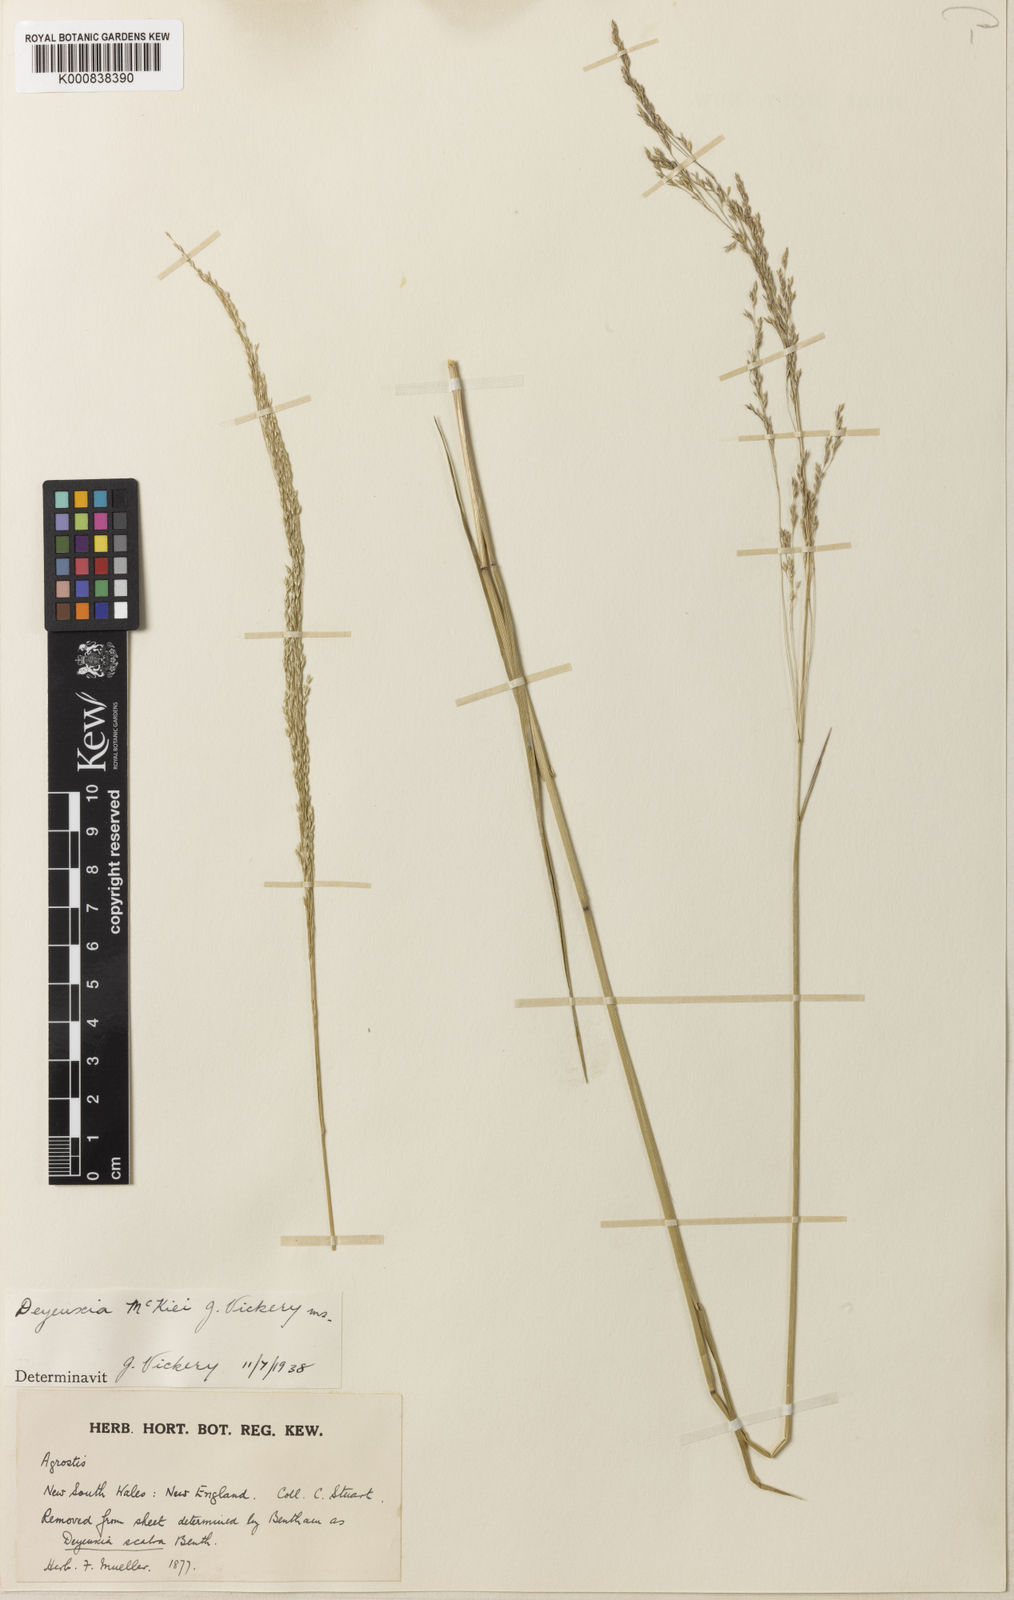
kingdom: Plantae
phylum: Tracheophyta
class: Liliopsida
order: Poales
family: Poaceae
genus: Calamagrostis
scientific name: Calamagrostis mckiei
